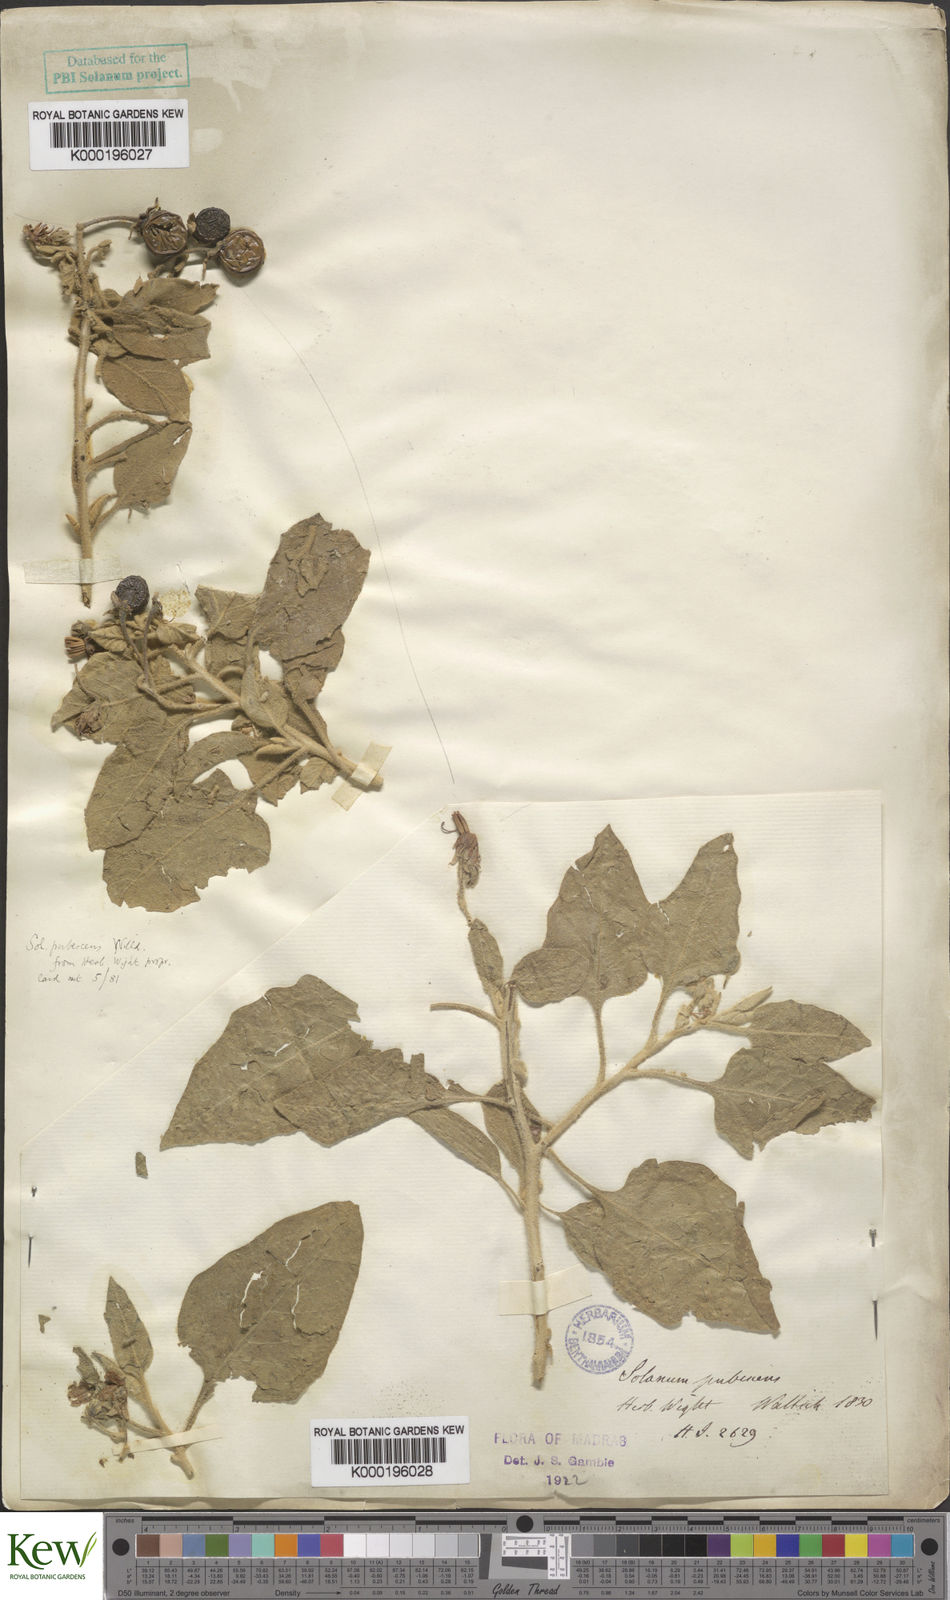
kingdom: Plantae
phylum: Tracheophyta
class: Magnoliopsida
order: Solanales
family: Solanaceae
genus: Solanum
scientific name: Solanum pubescens
